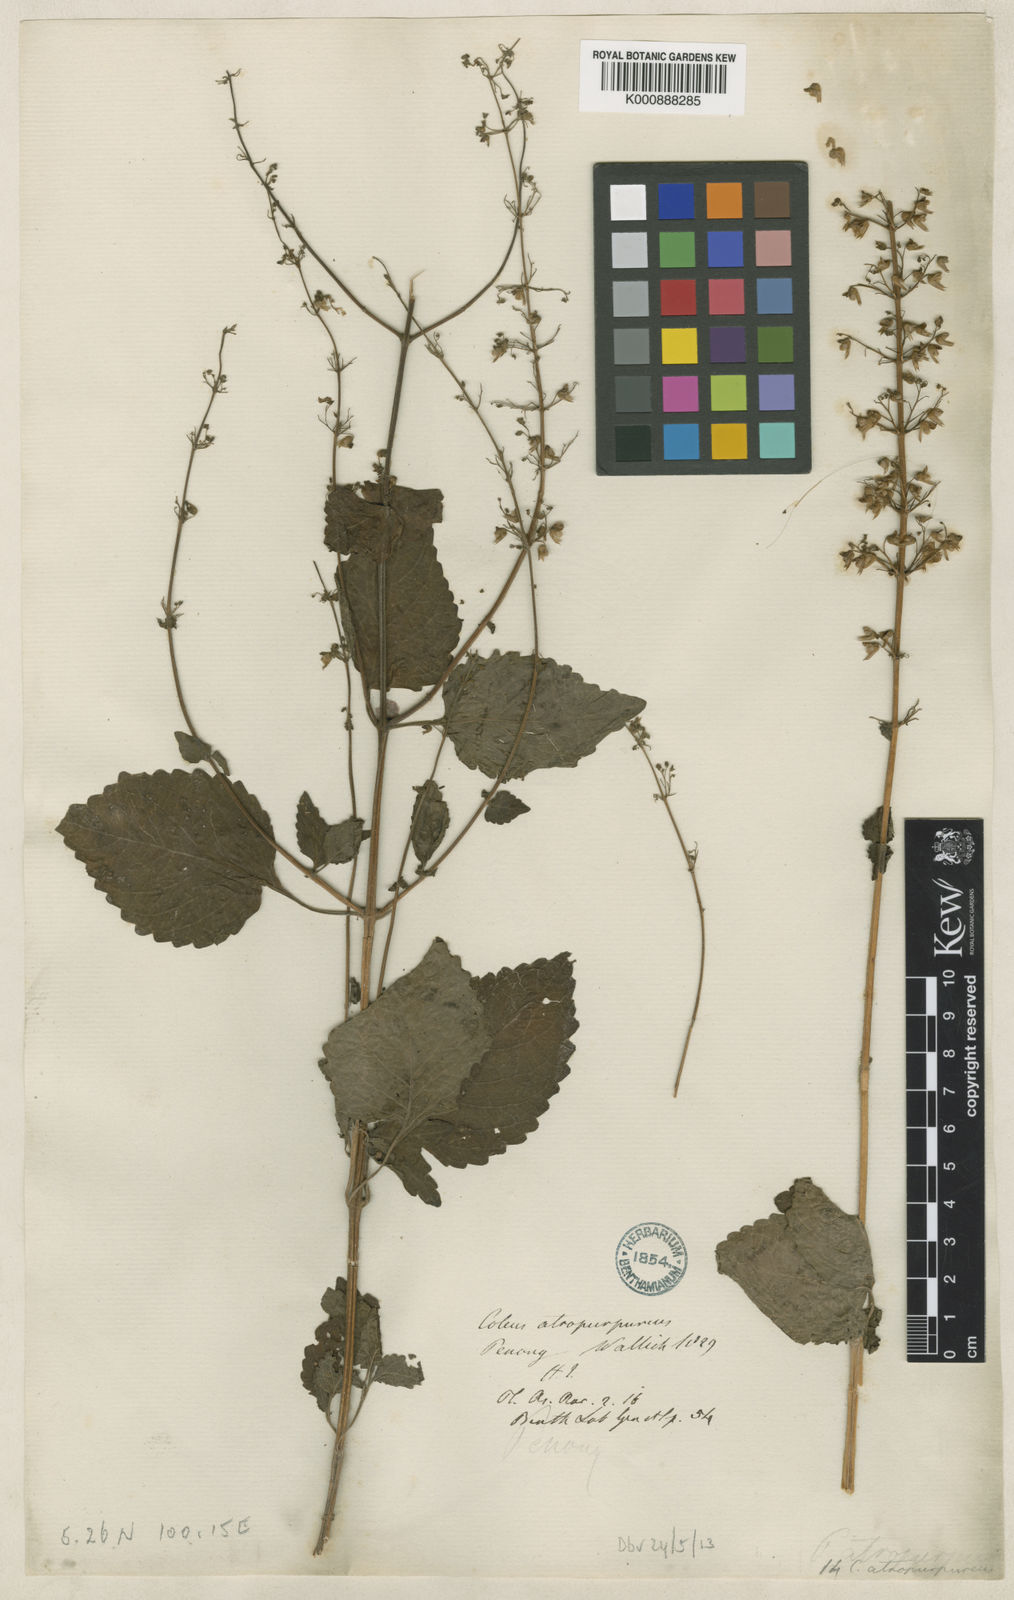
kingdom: Plantae
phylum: Tracheophyta
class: Magnoliopsida
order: Lamiales
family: Lamiaceae
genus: Plectranthus
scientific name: Plectranthus
